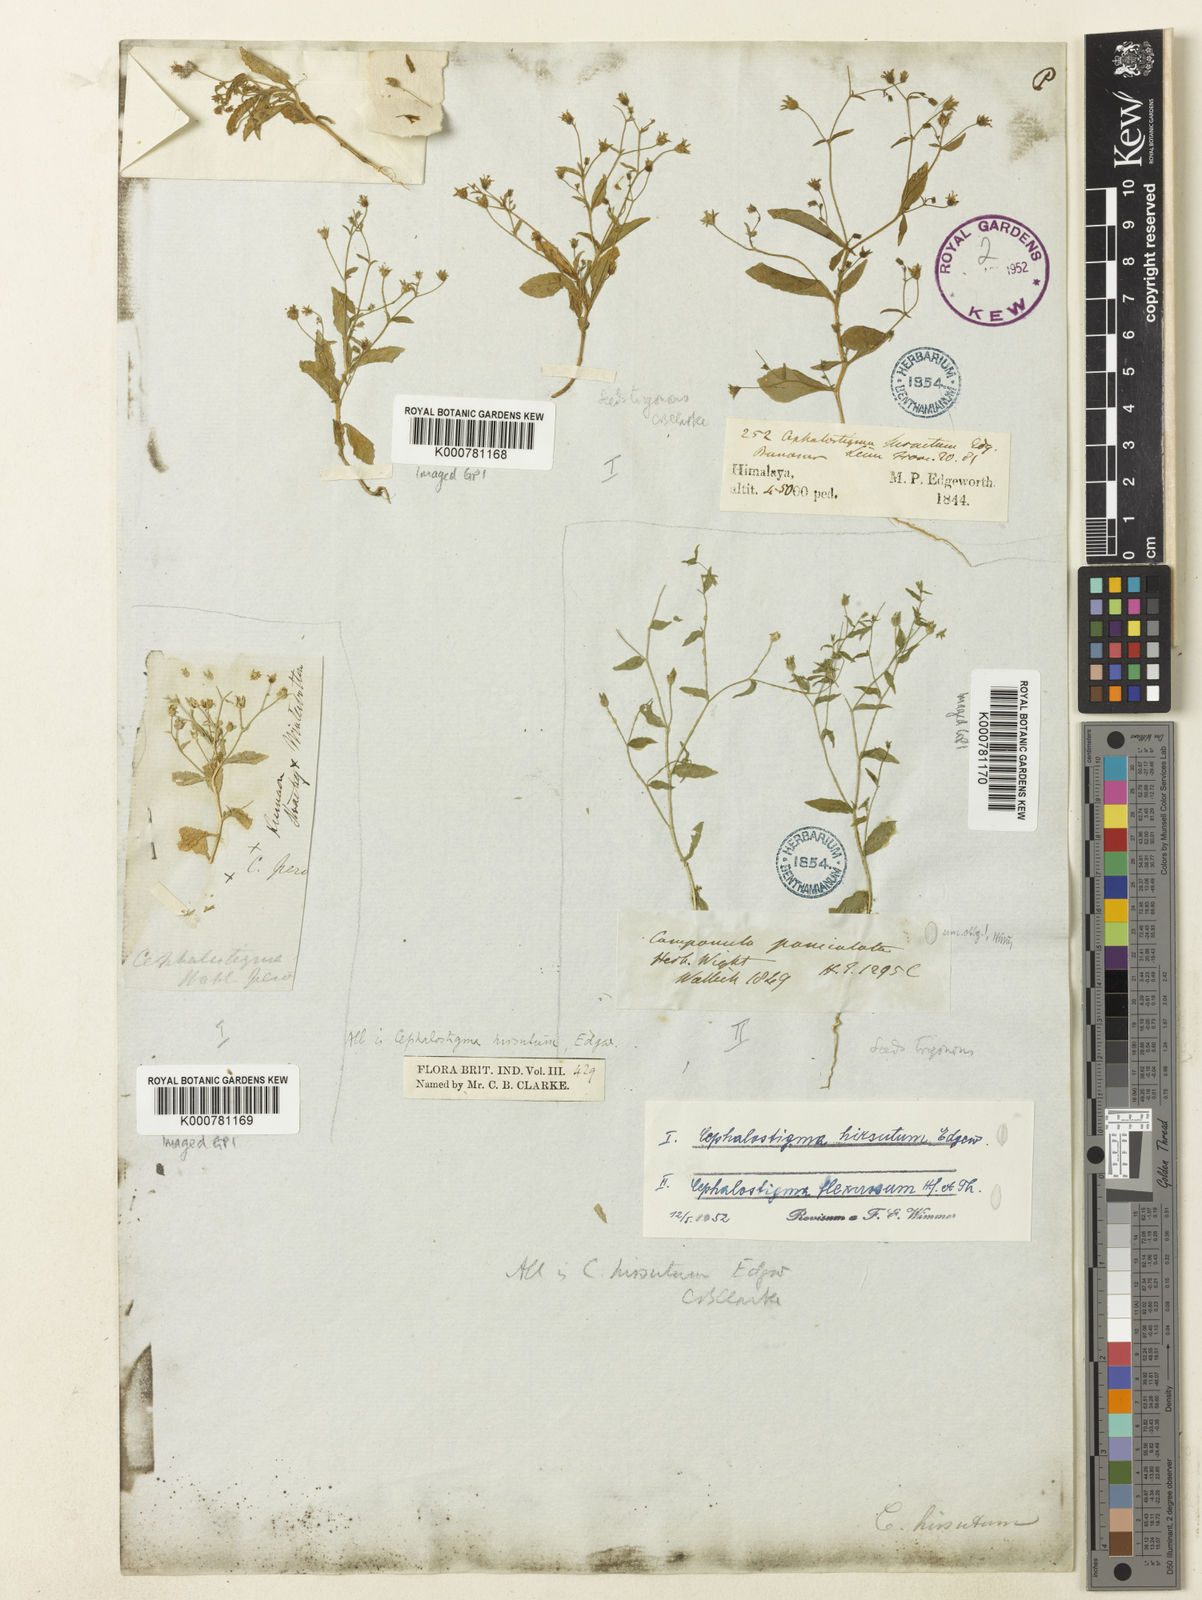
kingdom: Plantae
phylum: Tracheophyta
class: Magnoliopsida
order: Asterales
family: Campanulaceae
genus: Wahlenbergia
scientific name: Wahlenbergia hirsuta
